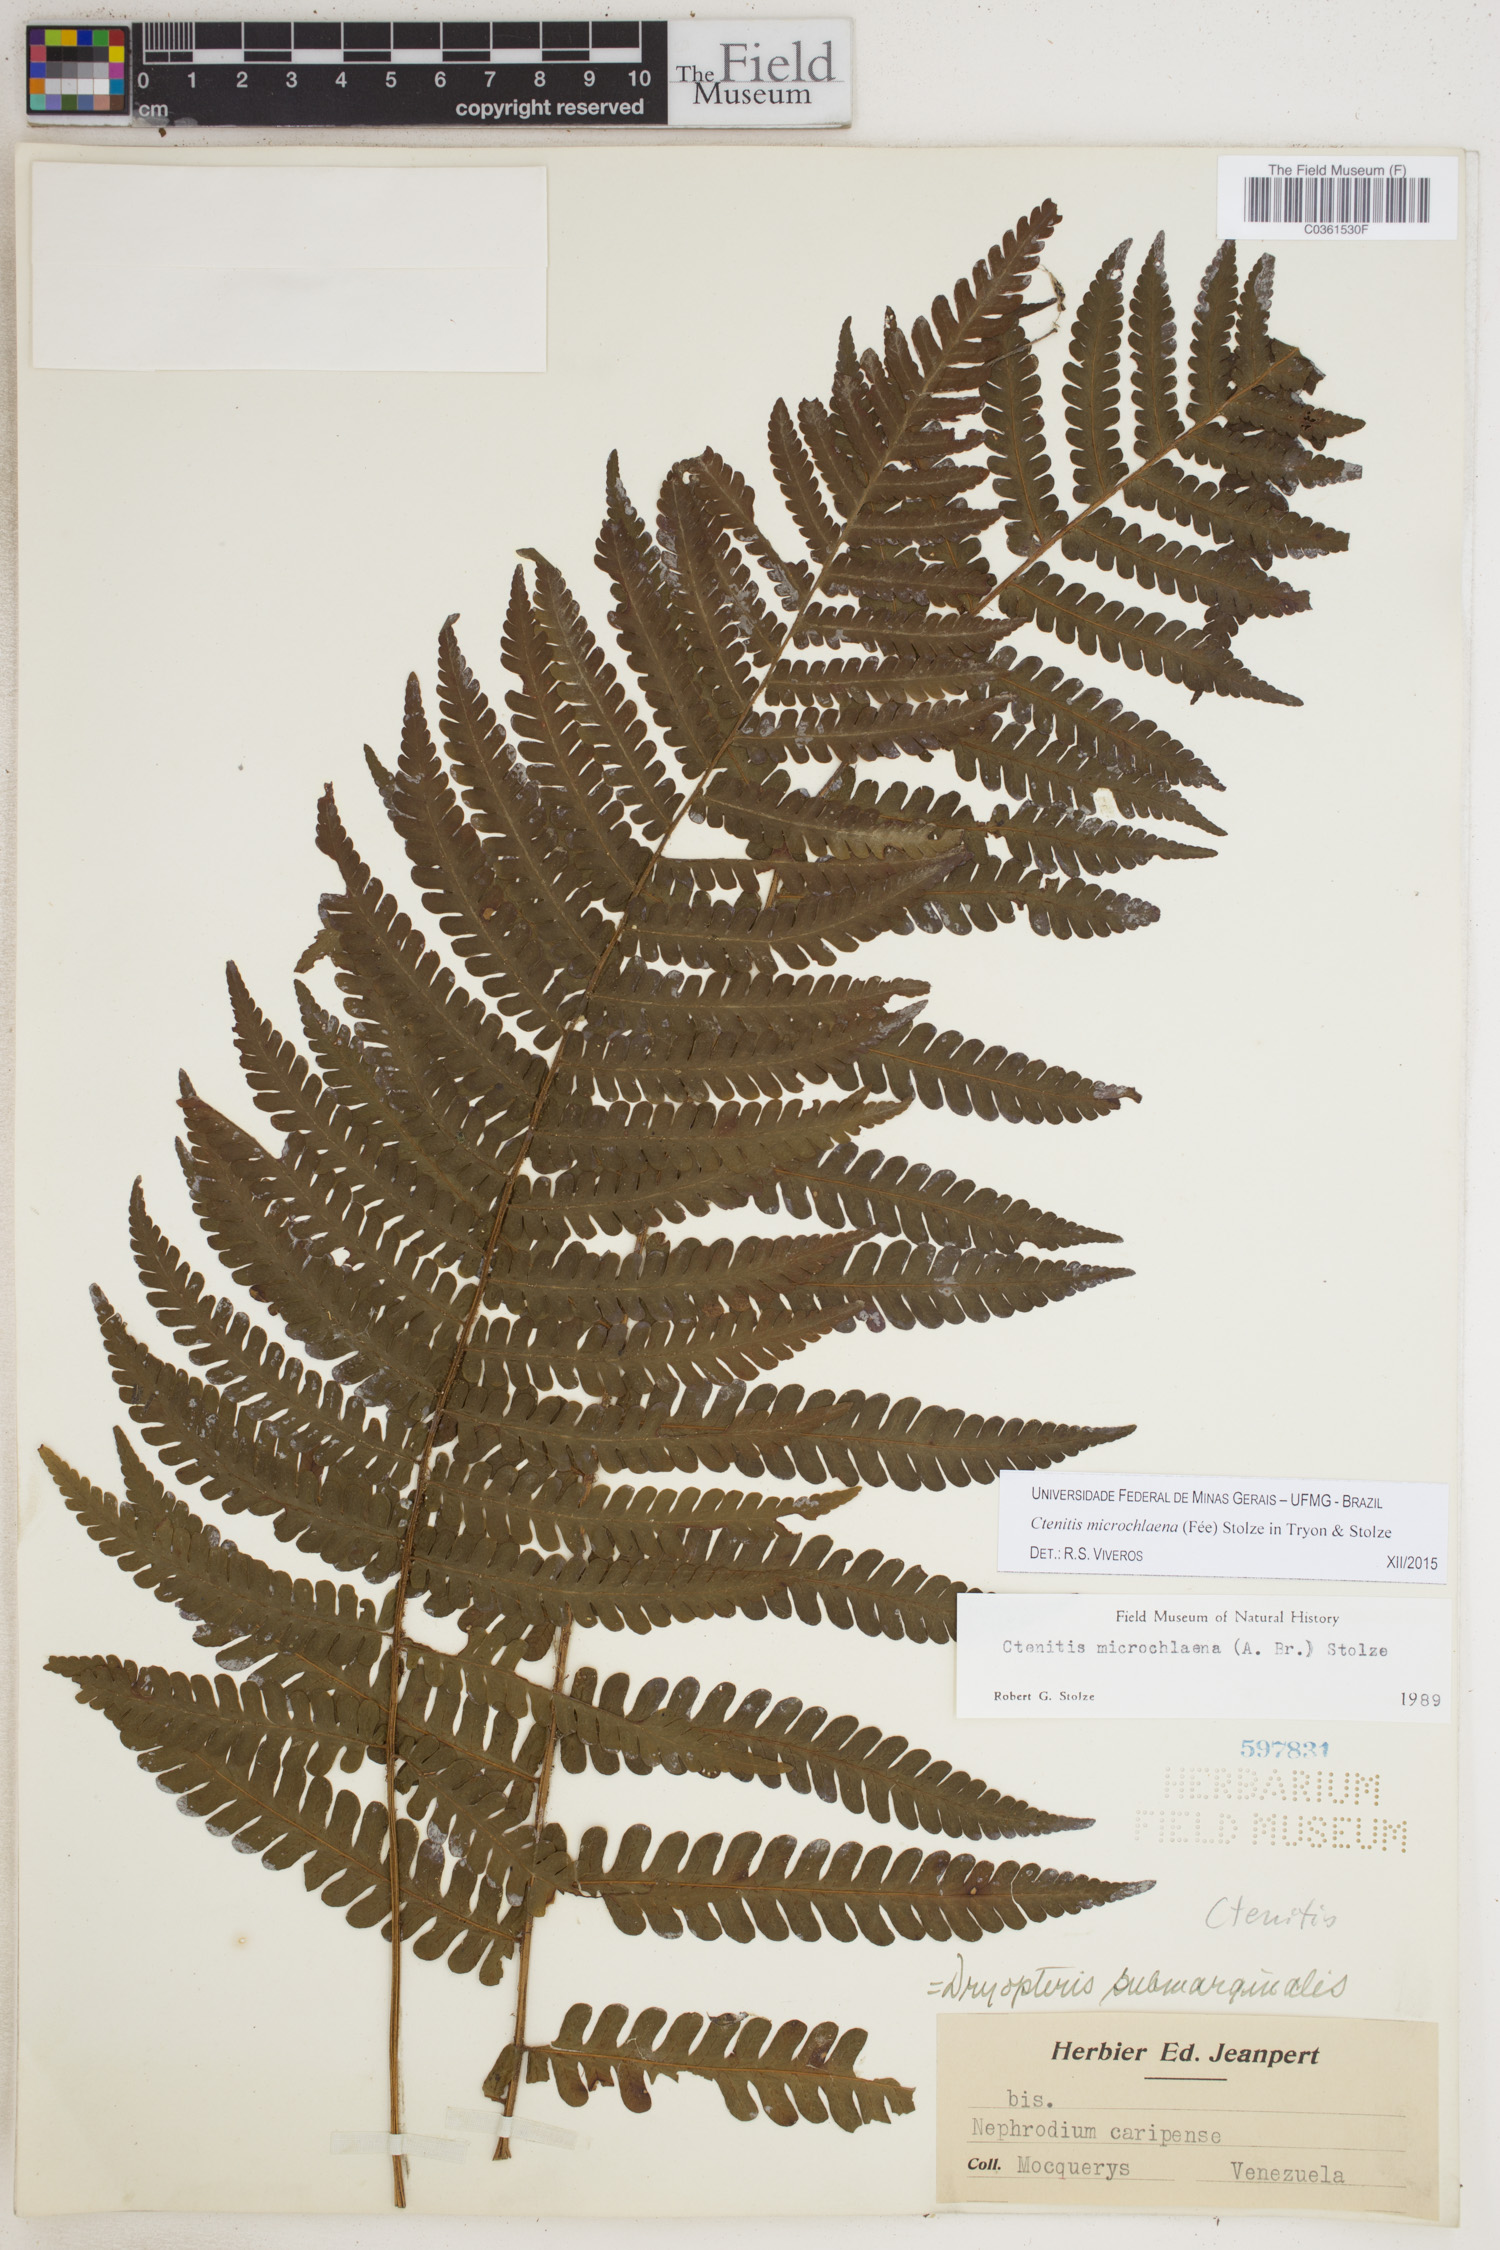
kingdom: Plantae
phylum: Tracheophyta
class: Polypodiopsida
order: Polypodiales
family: Dryopteridaceae
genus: Ctenitis
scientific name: Ctenitis microchlaena
